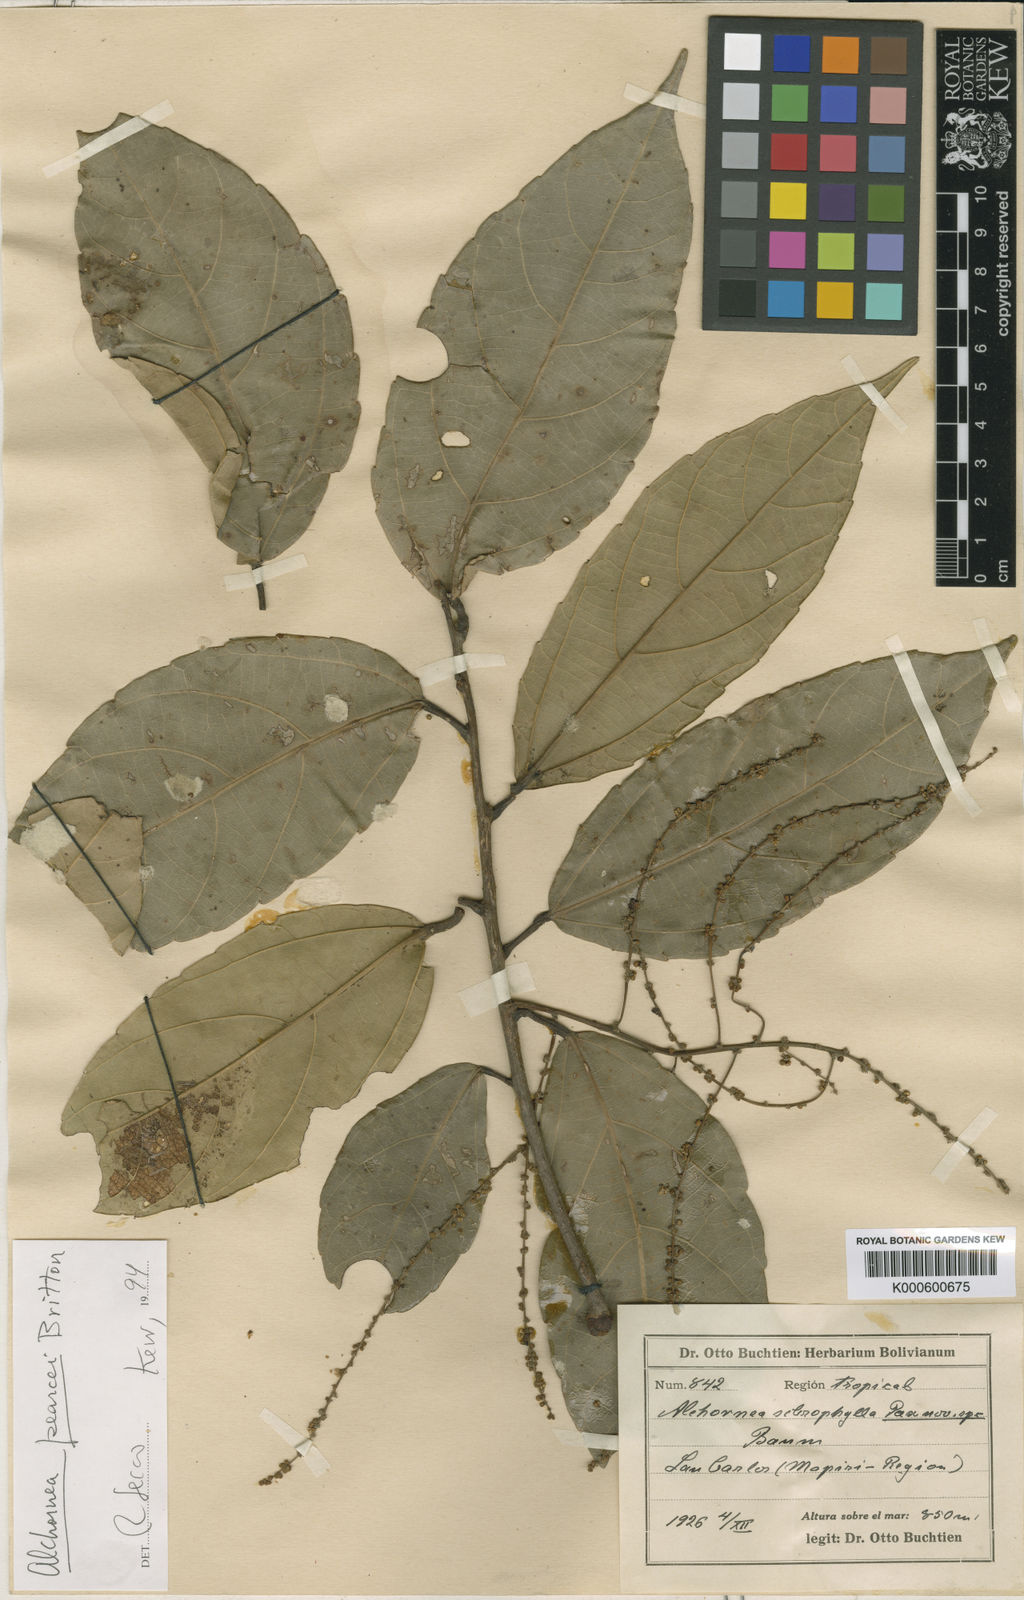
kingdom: Plantae
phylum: Tracheophyta
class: Magnoliopsida
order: Malpighiales
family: Euphorbiaceae
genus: Alchornea
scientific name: Alchornea pearcei
